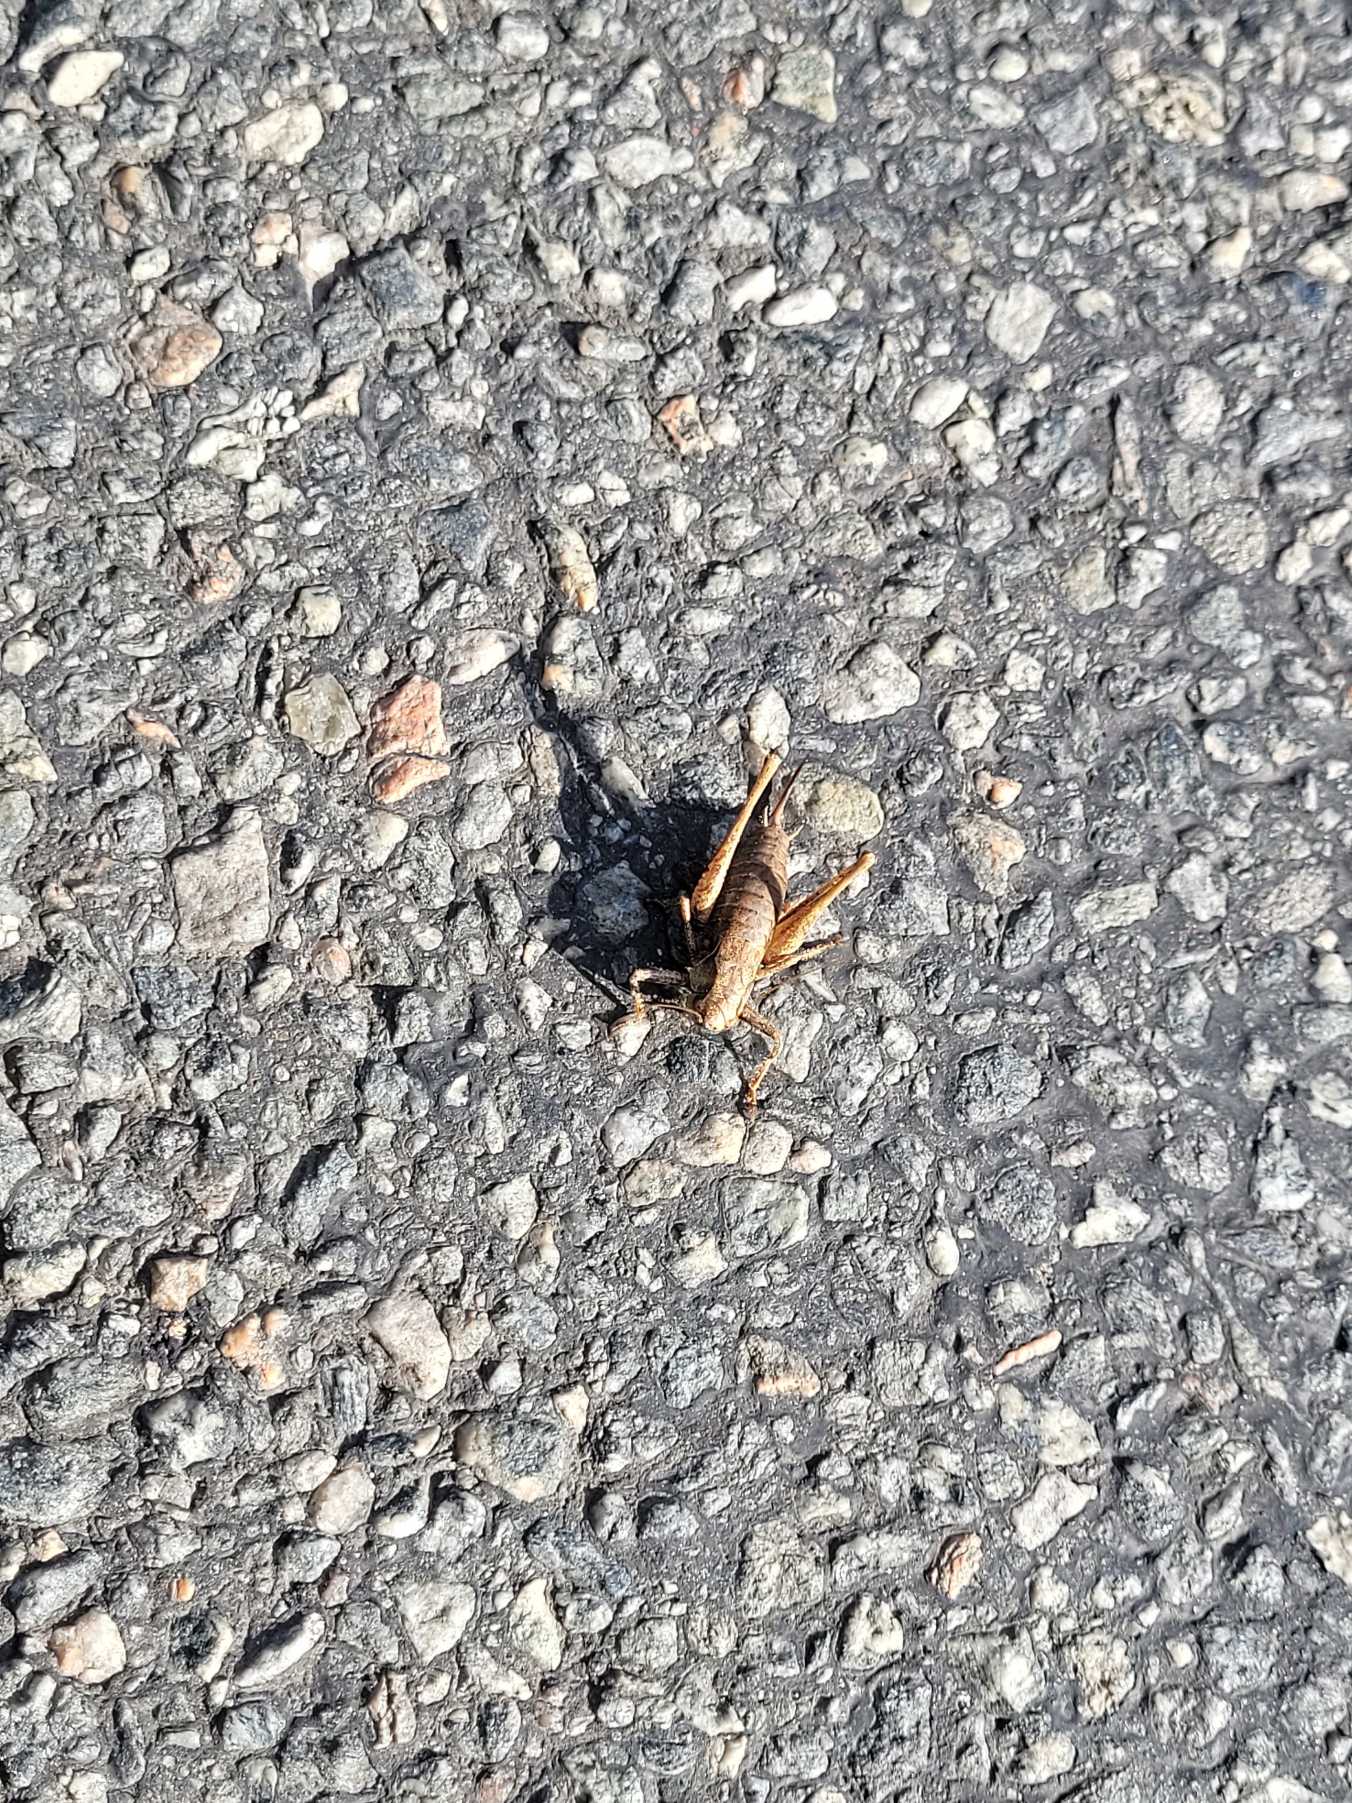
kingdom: Animalia
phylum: Arthropoda
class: Insecta
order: Orthoptera
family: Tettigoniidae
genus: Pholidoptera
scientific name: Pholidoptera griseoaptera
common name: Buskgræshoppe
